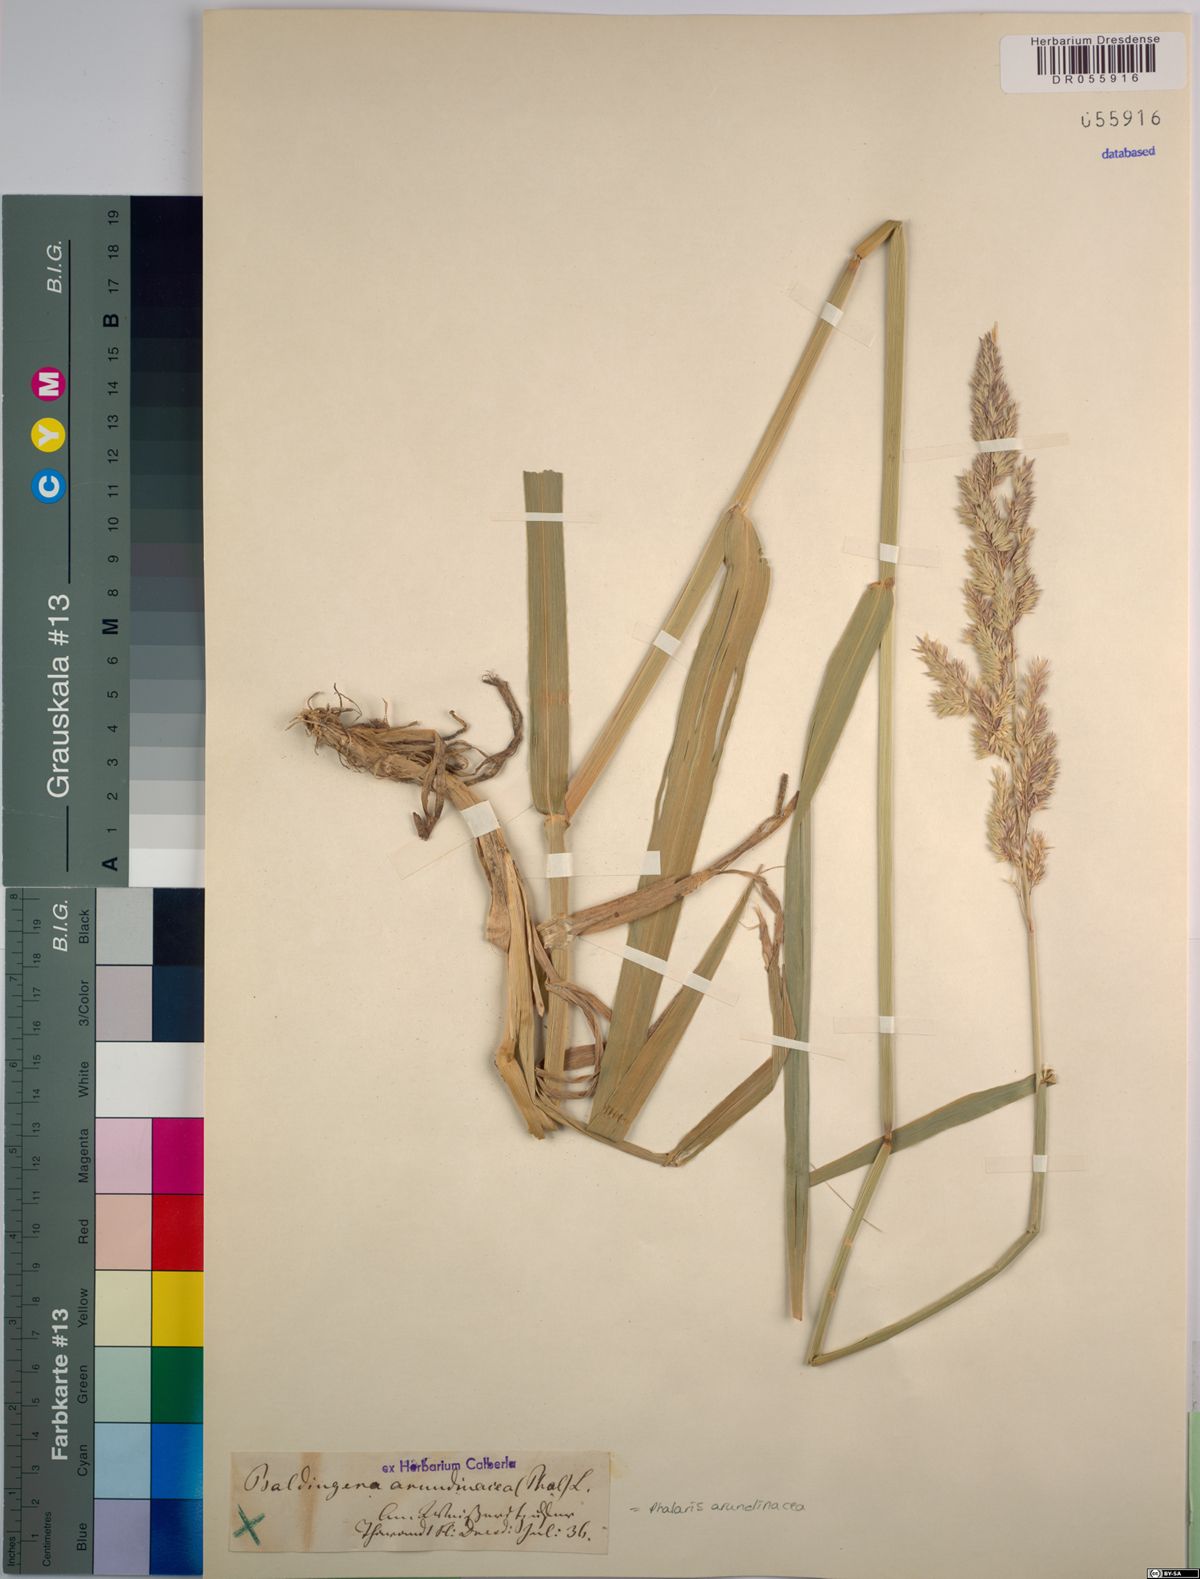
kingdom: Plantae
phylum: Tracheophyta
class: Liliopsida
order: Poales
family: Poaceae
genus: Phalaris
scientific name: Phalaris arundinacea
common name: Reed canary-grass
